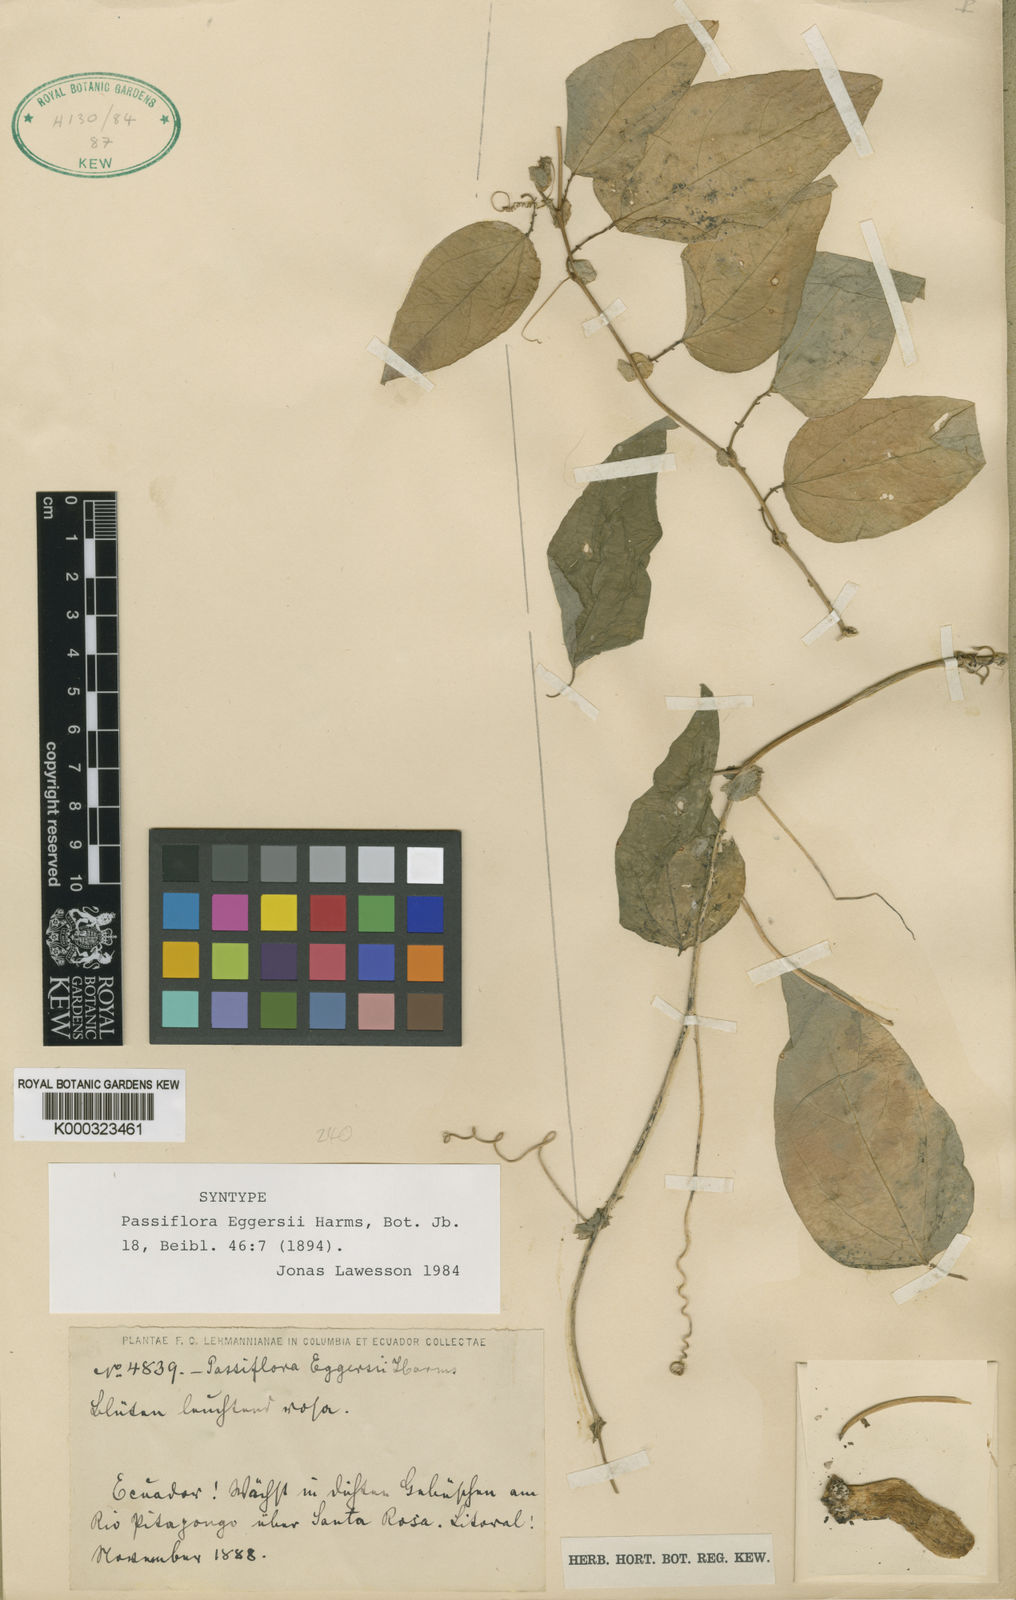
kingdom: Plantae
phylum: Tracheophyta
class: Magnoliopsida
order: Malpighiales
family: Passifloraceae
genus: Passiflora
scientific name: Passiflora eggersii
